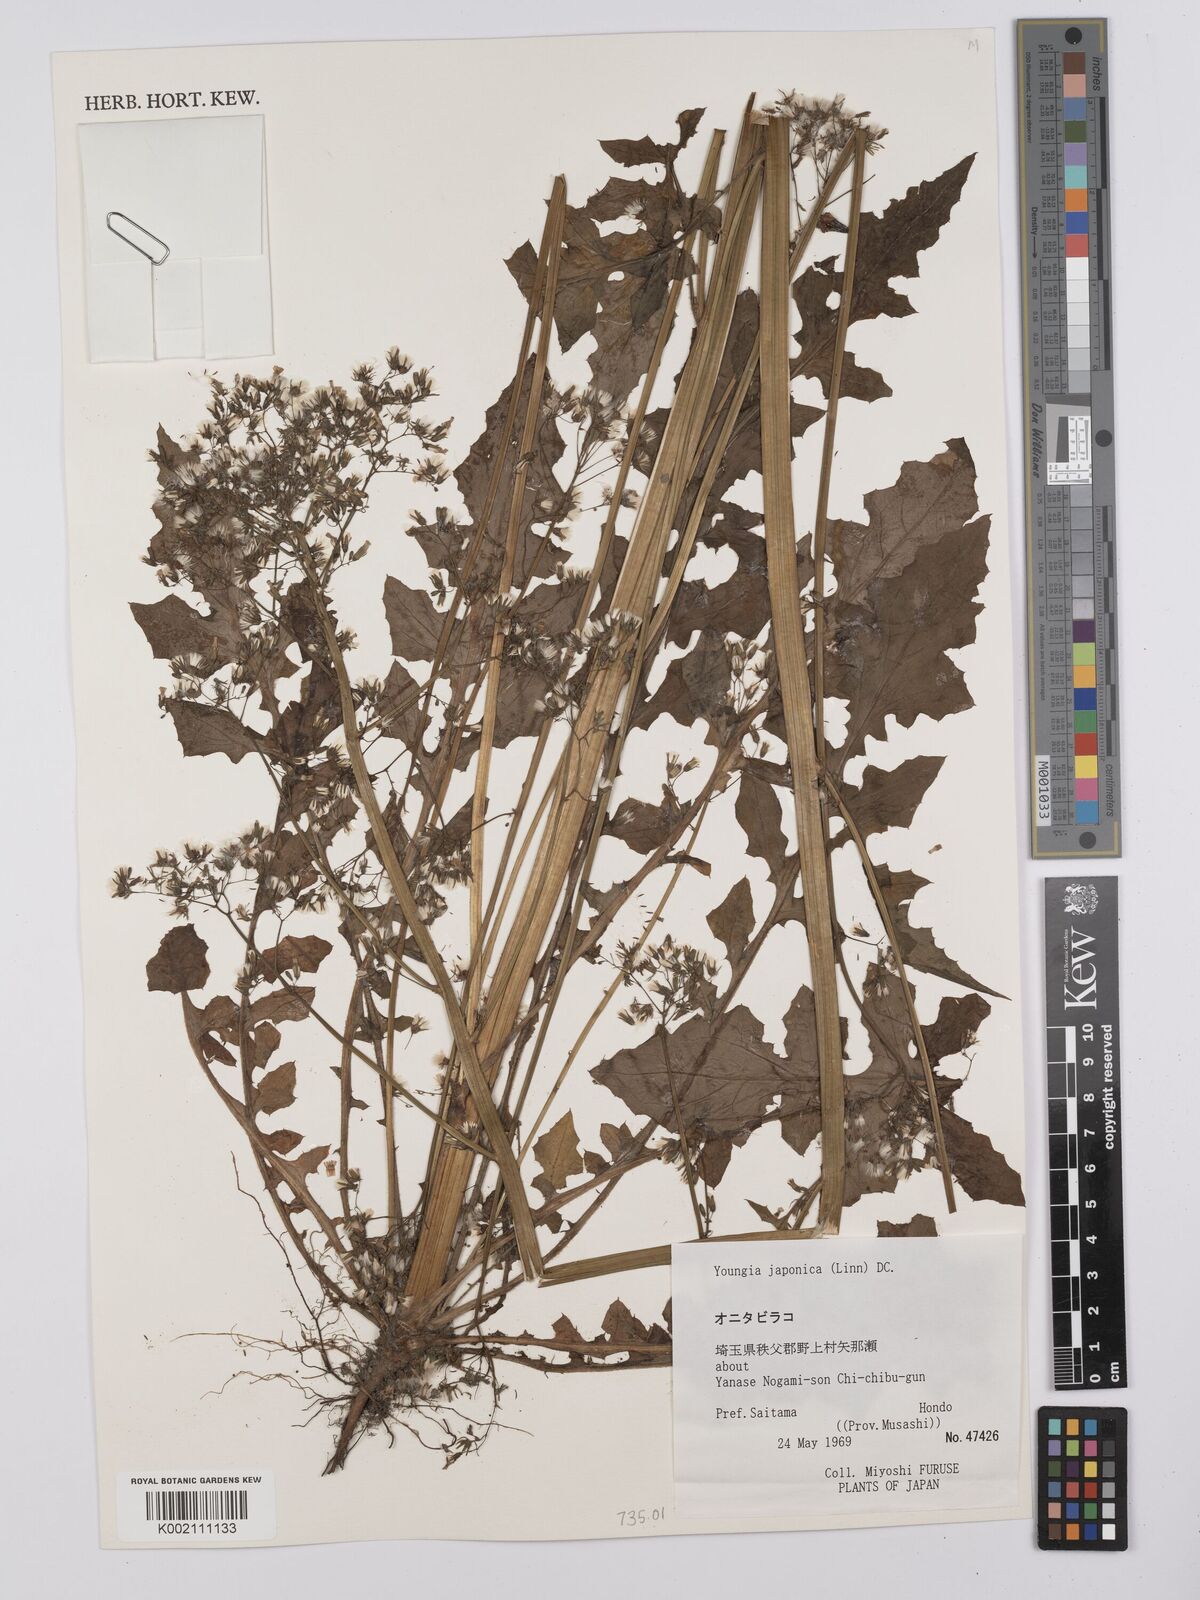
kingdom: Plantae
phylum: Tracheophyta
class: Magnoliopsida
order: Asterales
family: Asteraceae
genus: Youngia
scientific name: Youngia japonica
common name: Oriental false hawksbeard
